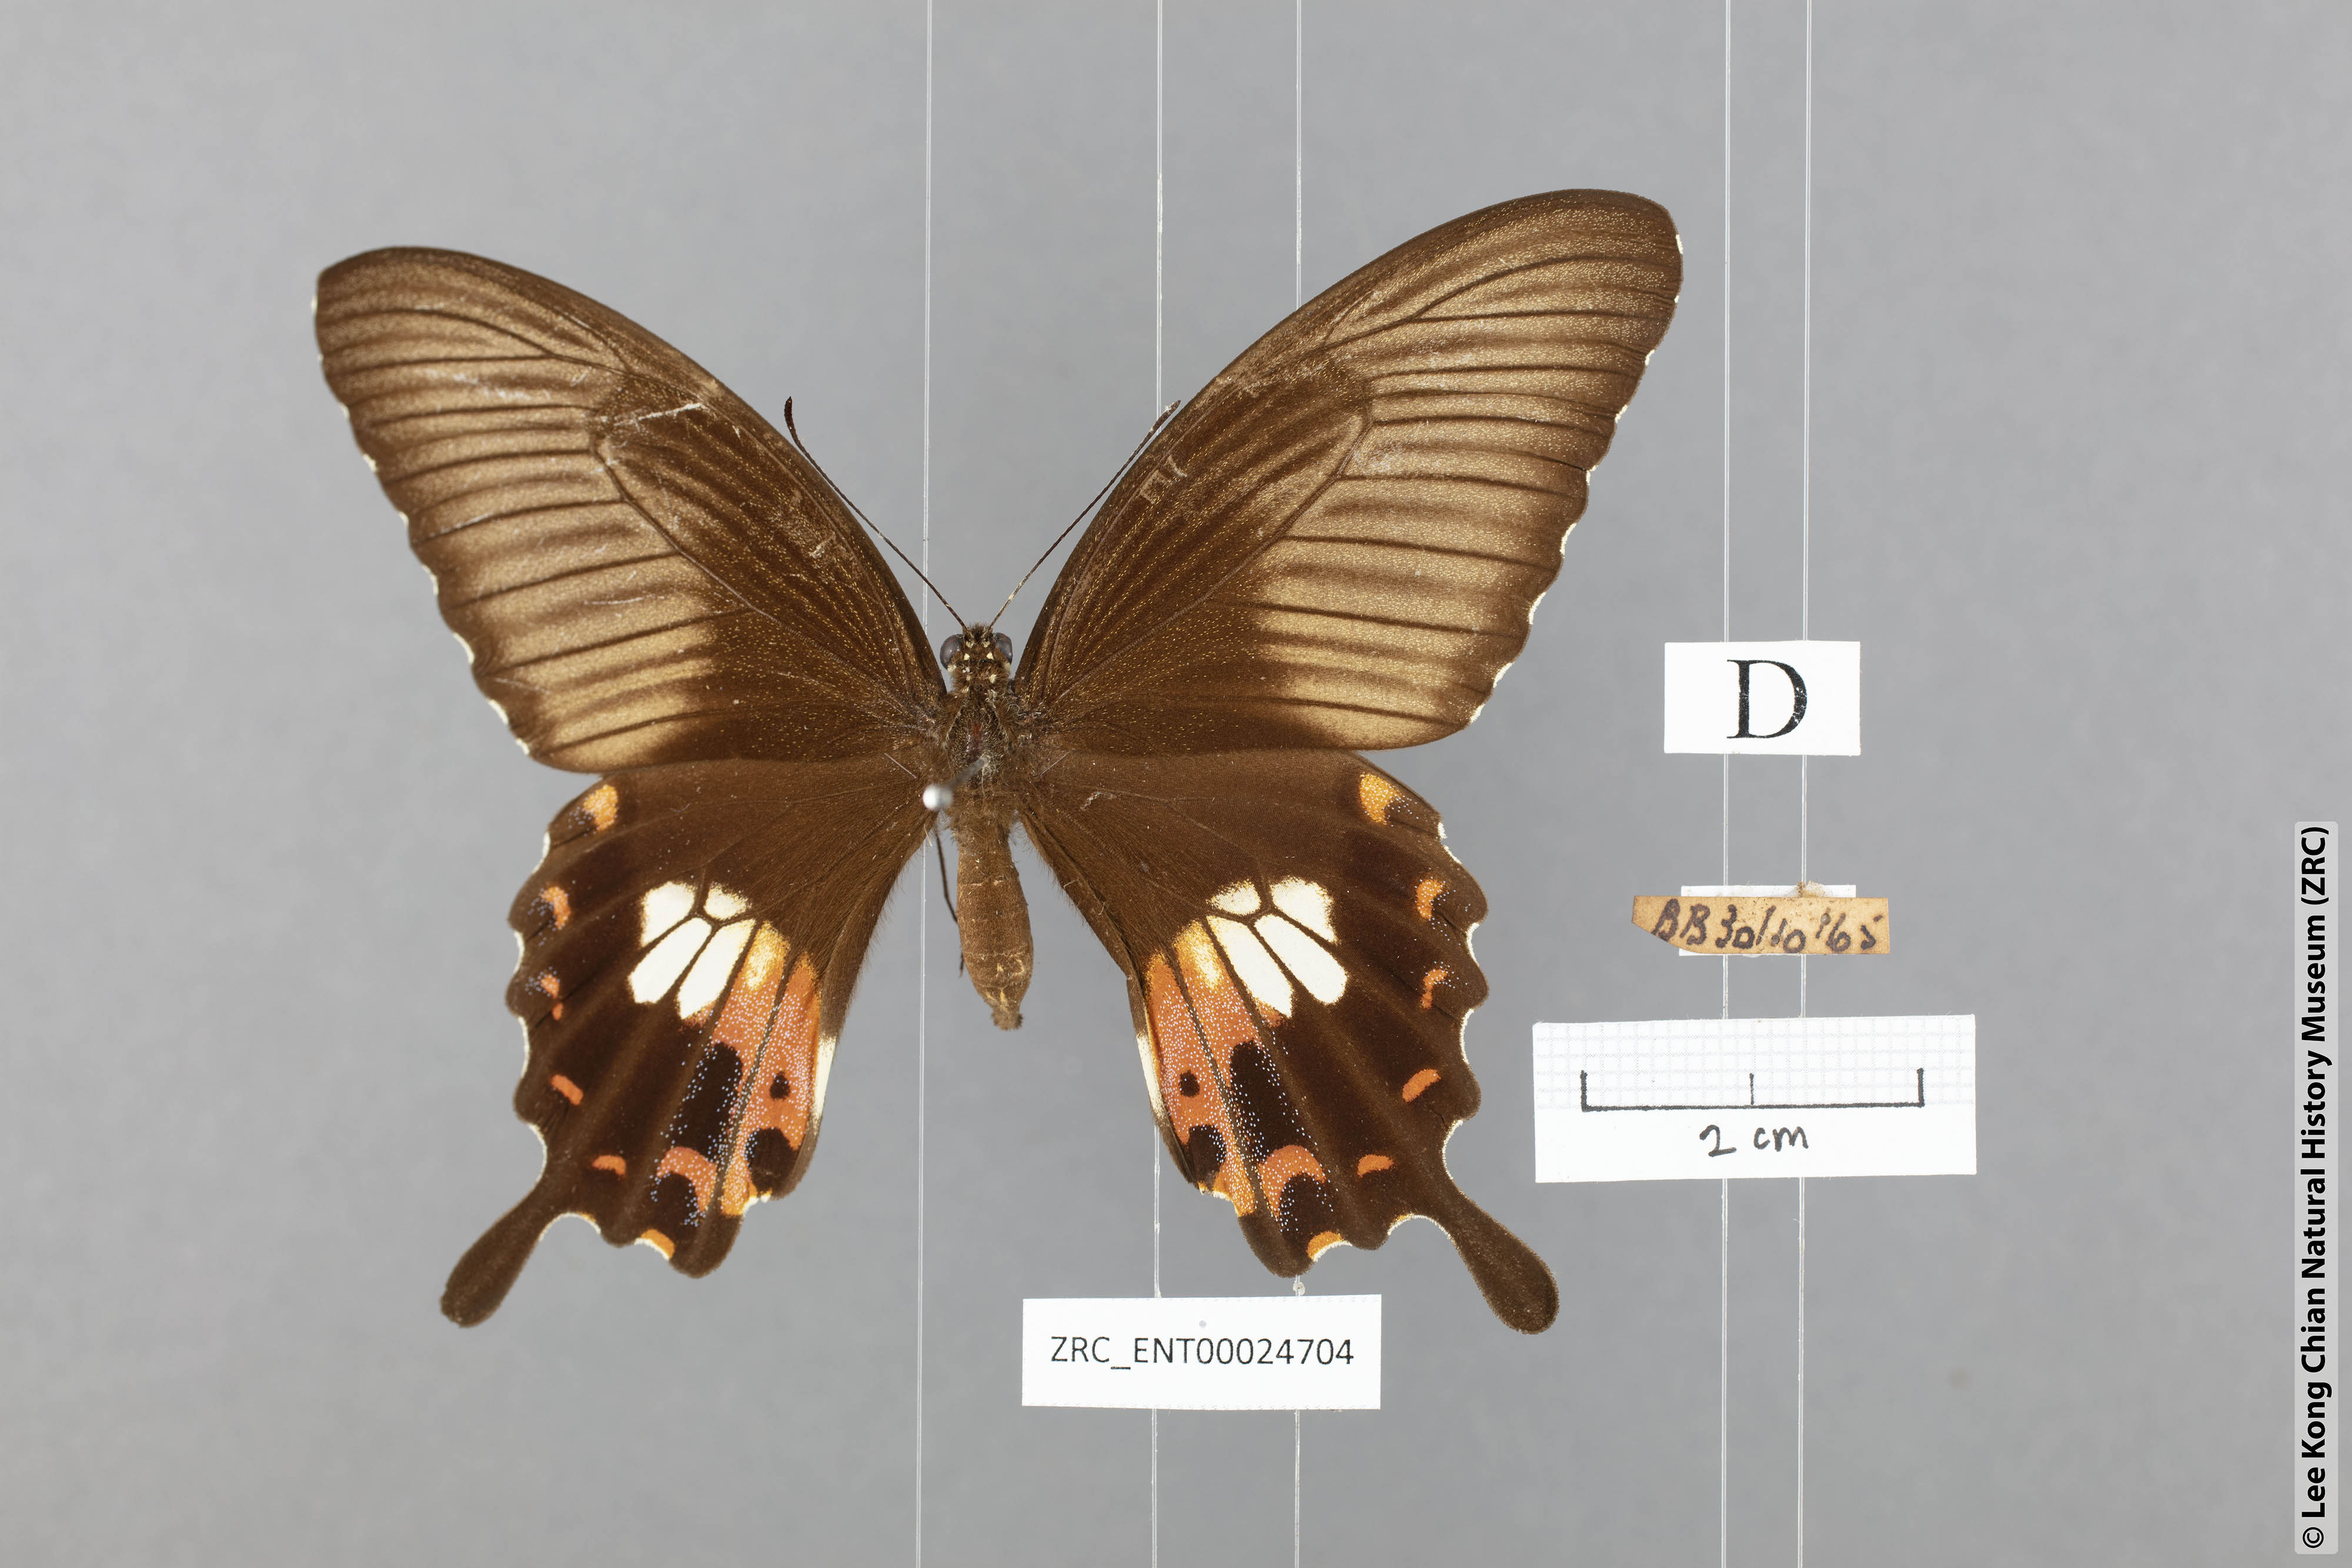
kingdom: Animalia
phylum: Arthropoda
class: Insecta
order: Lepidoptera
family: Papilionidae
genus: Papilio
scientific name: Papilio polytes
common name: Common mormon
